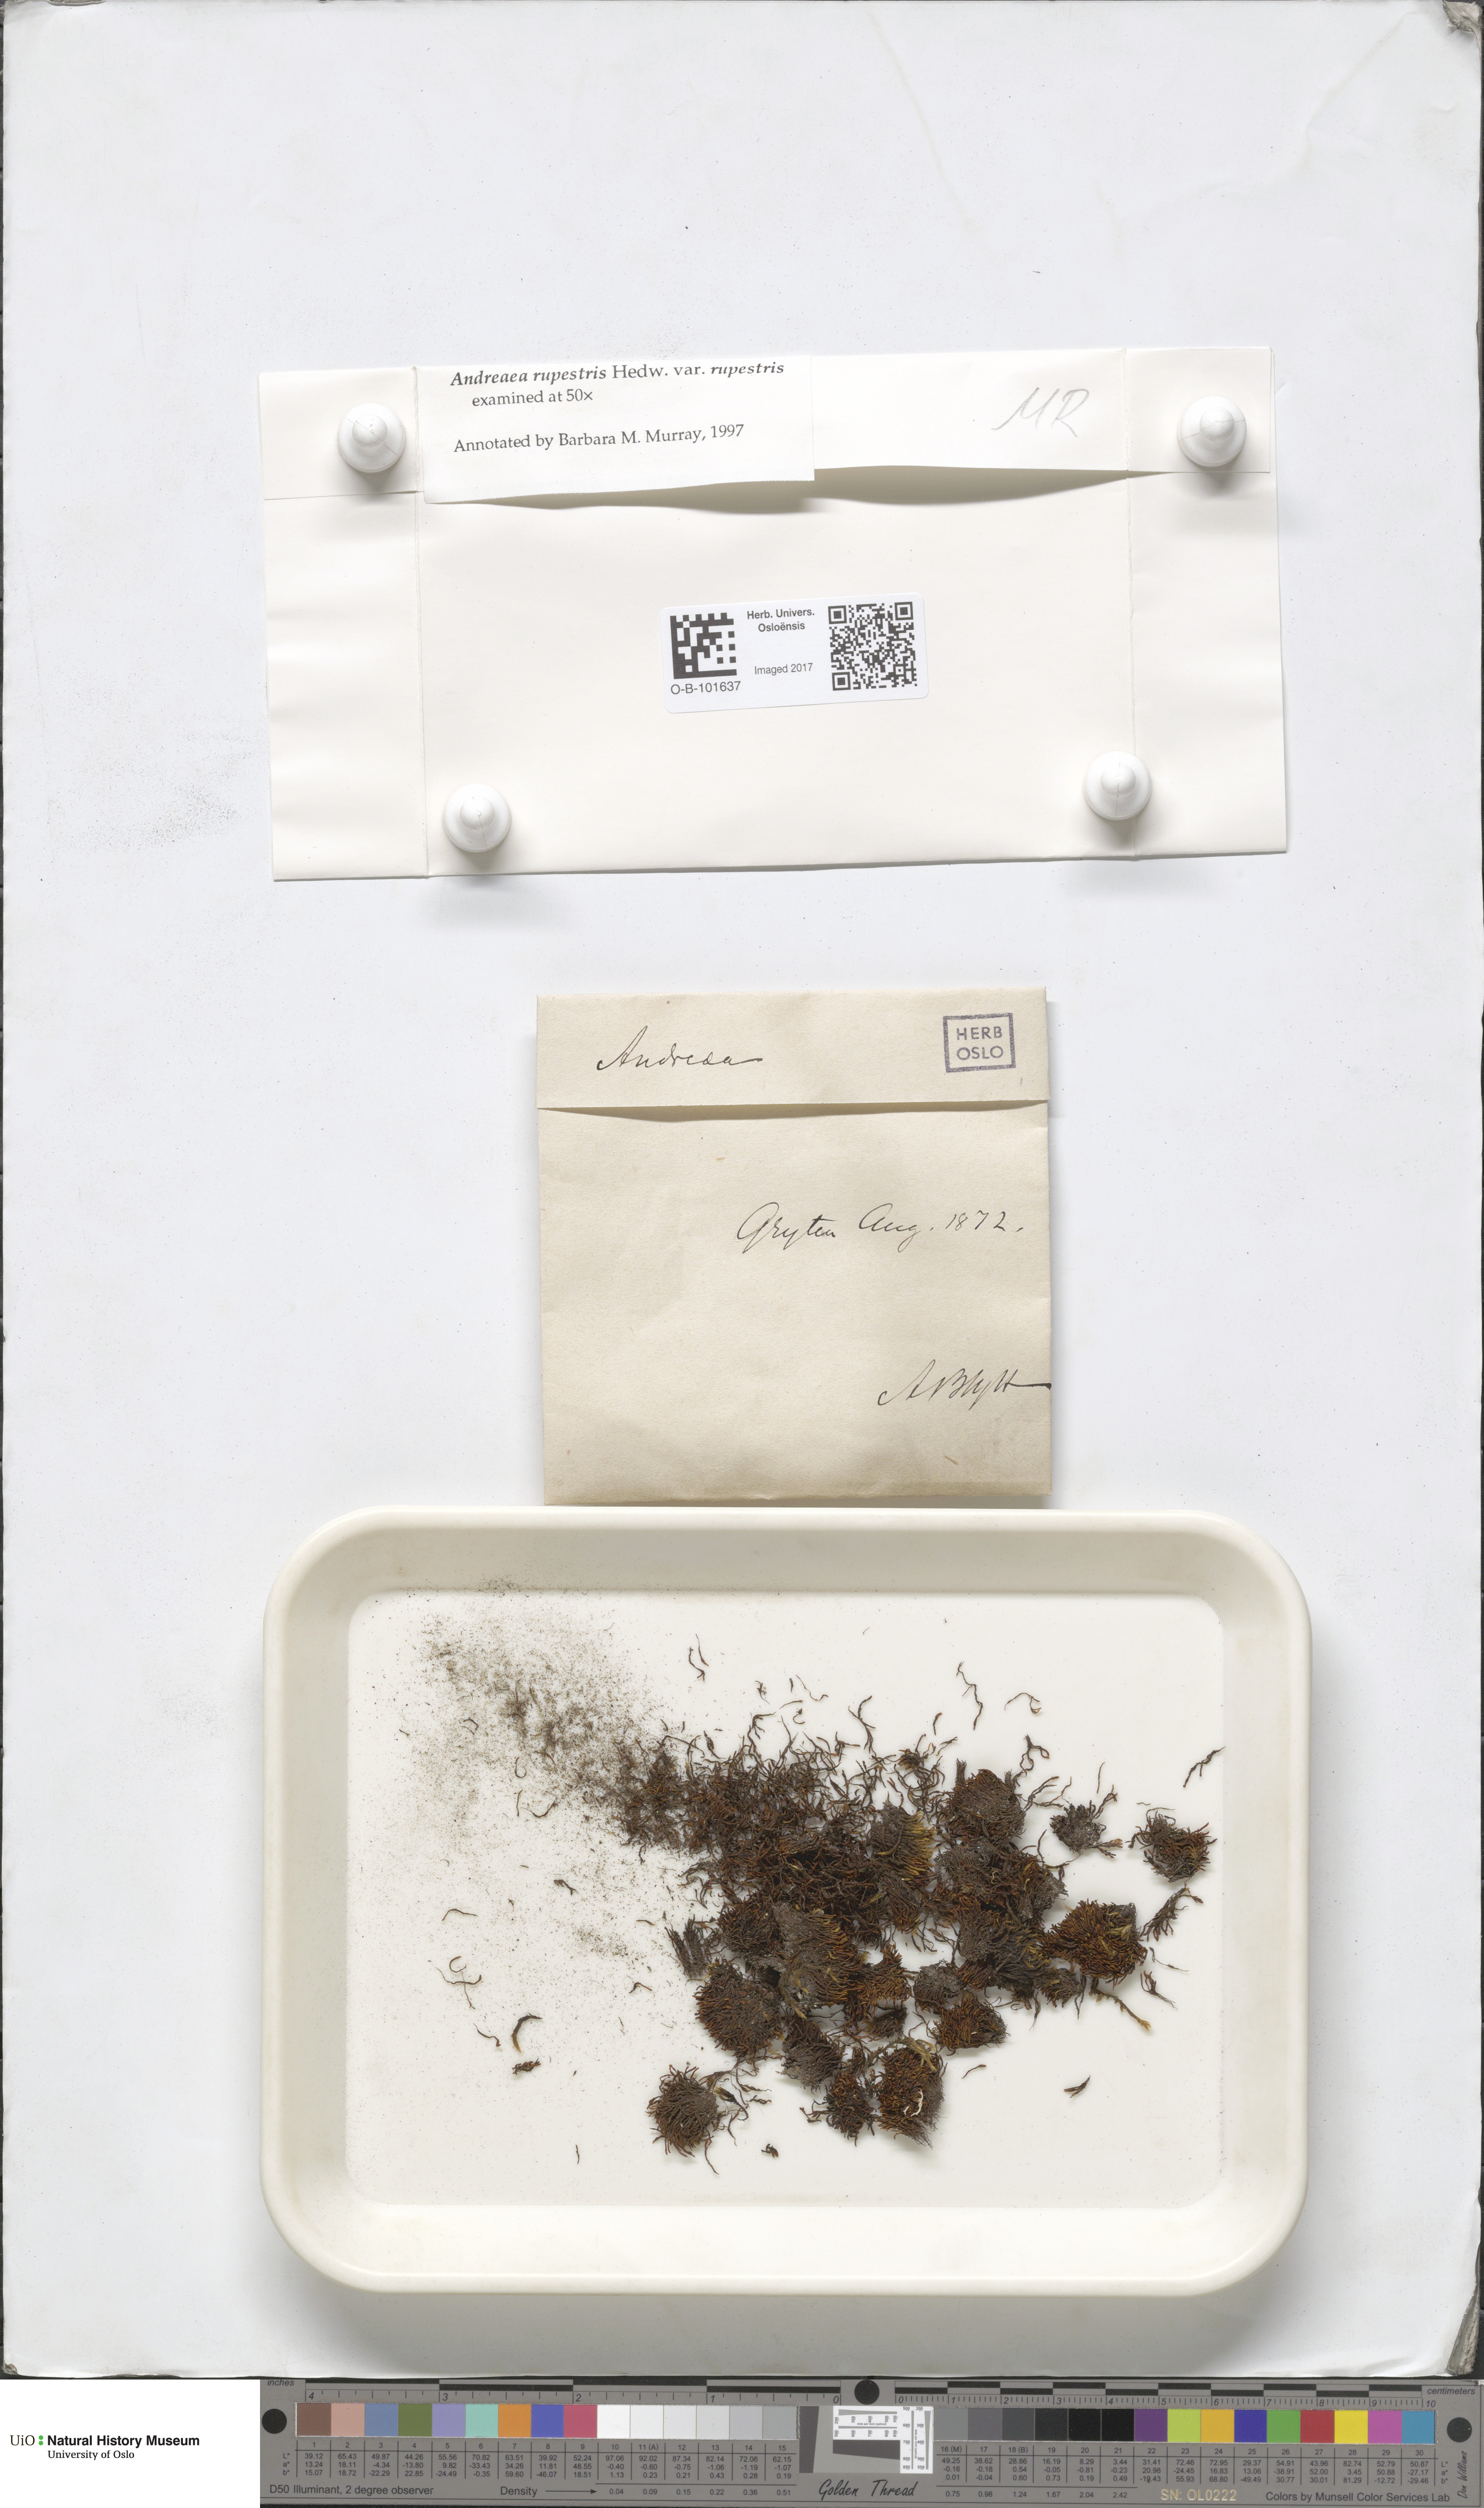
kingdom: Plantae
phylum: Bryophyta
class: Andreaeopsida
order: Andreaeales
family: Andreaeaceae
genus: Andreaea
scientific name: Andreaea rupestris
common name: Black rock moss
